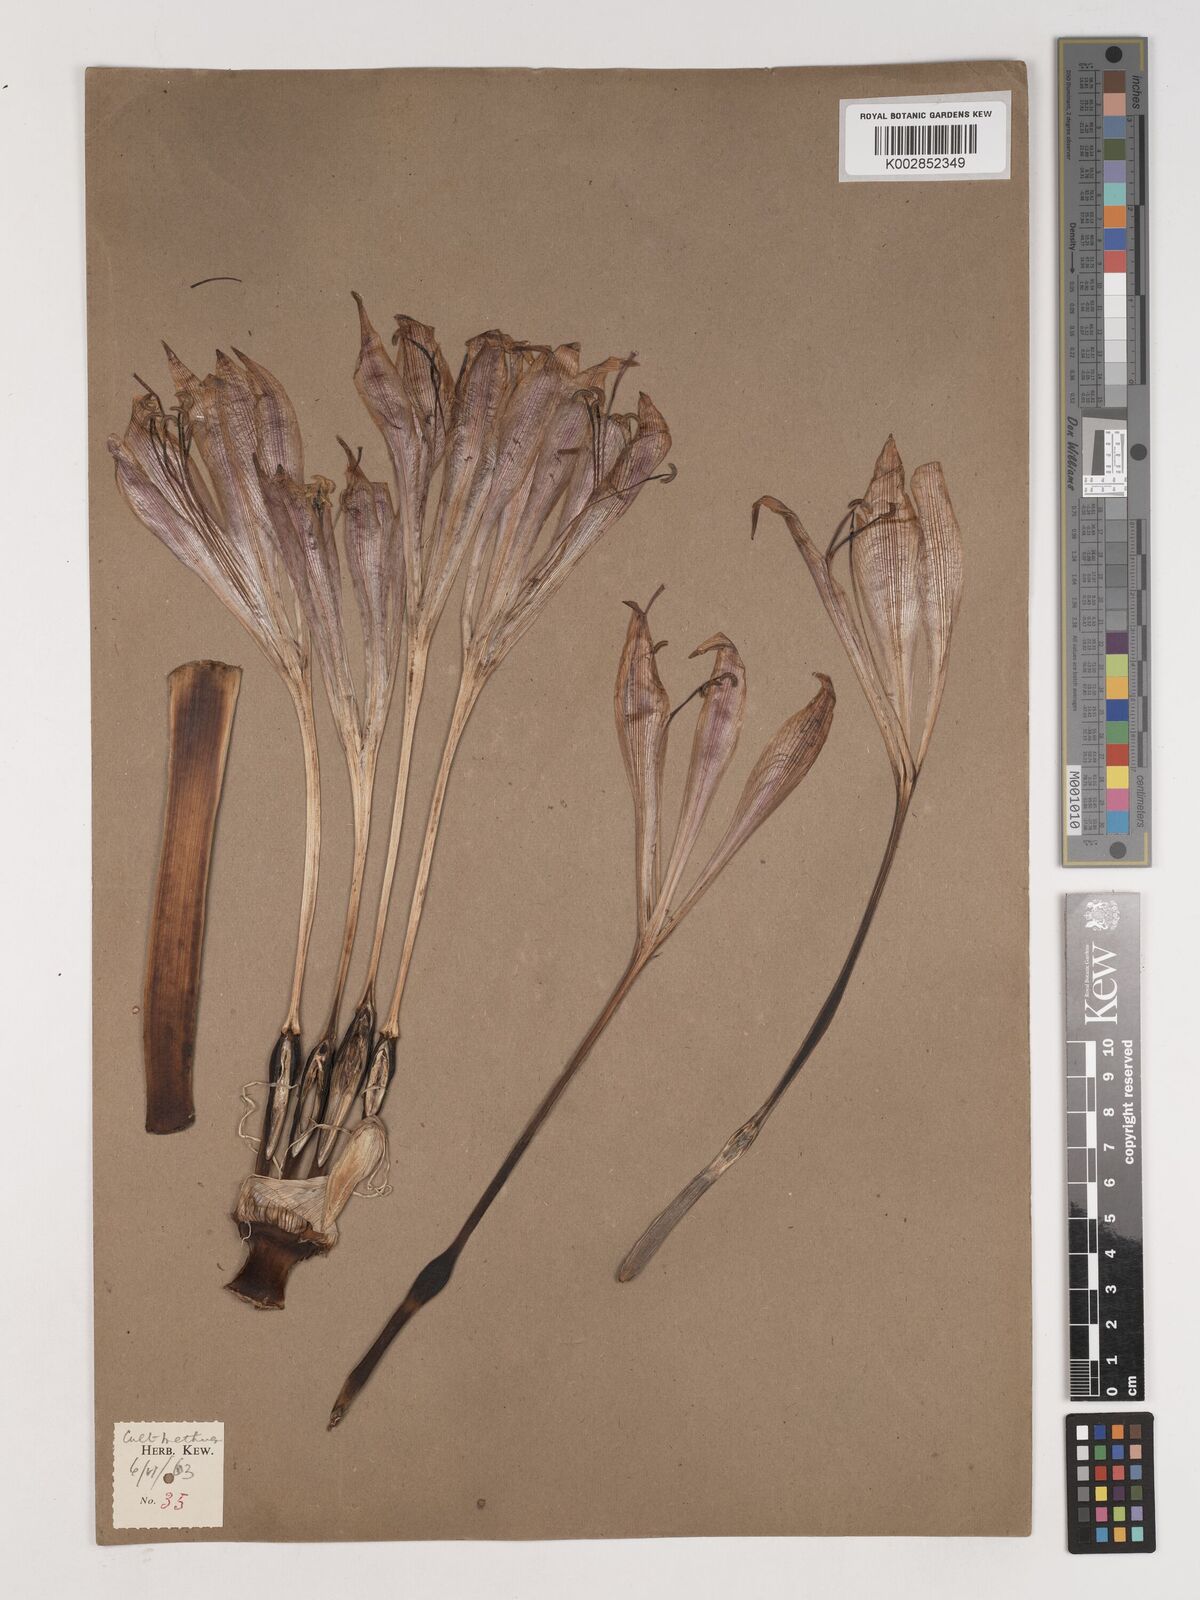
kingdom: Plantae
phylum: Tracheophyta
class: Liliopsida
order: Asparagales
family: Amaryllidaceae
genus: Crinum
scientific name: Crinum
